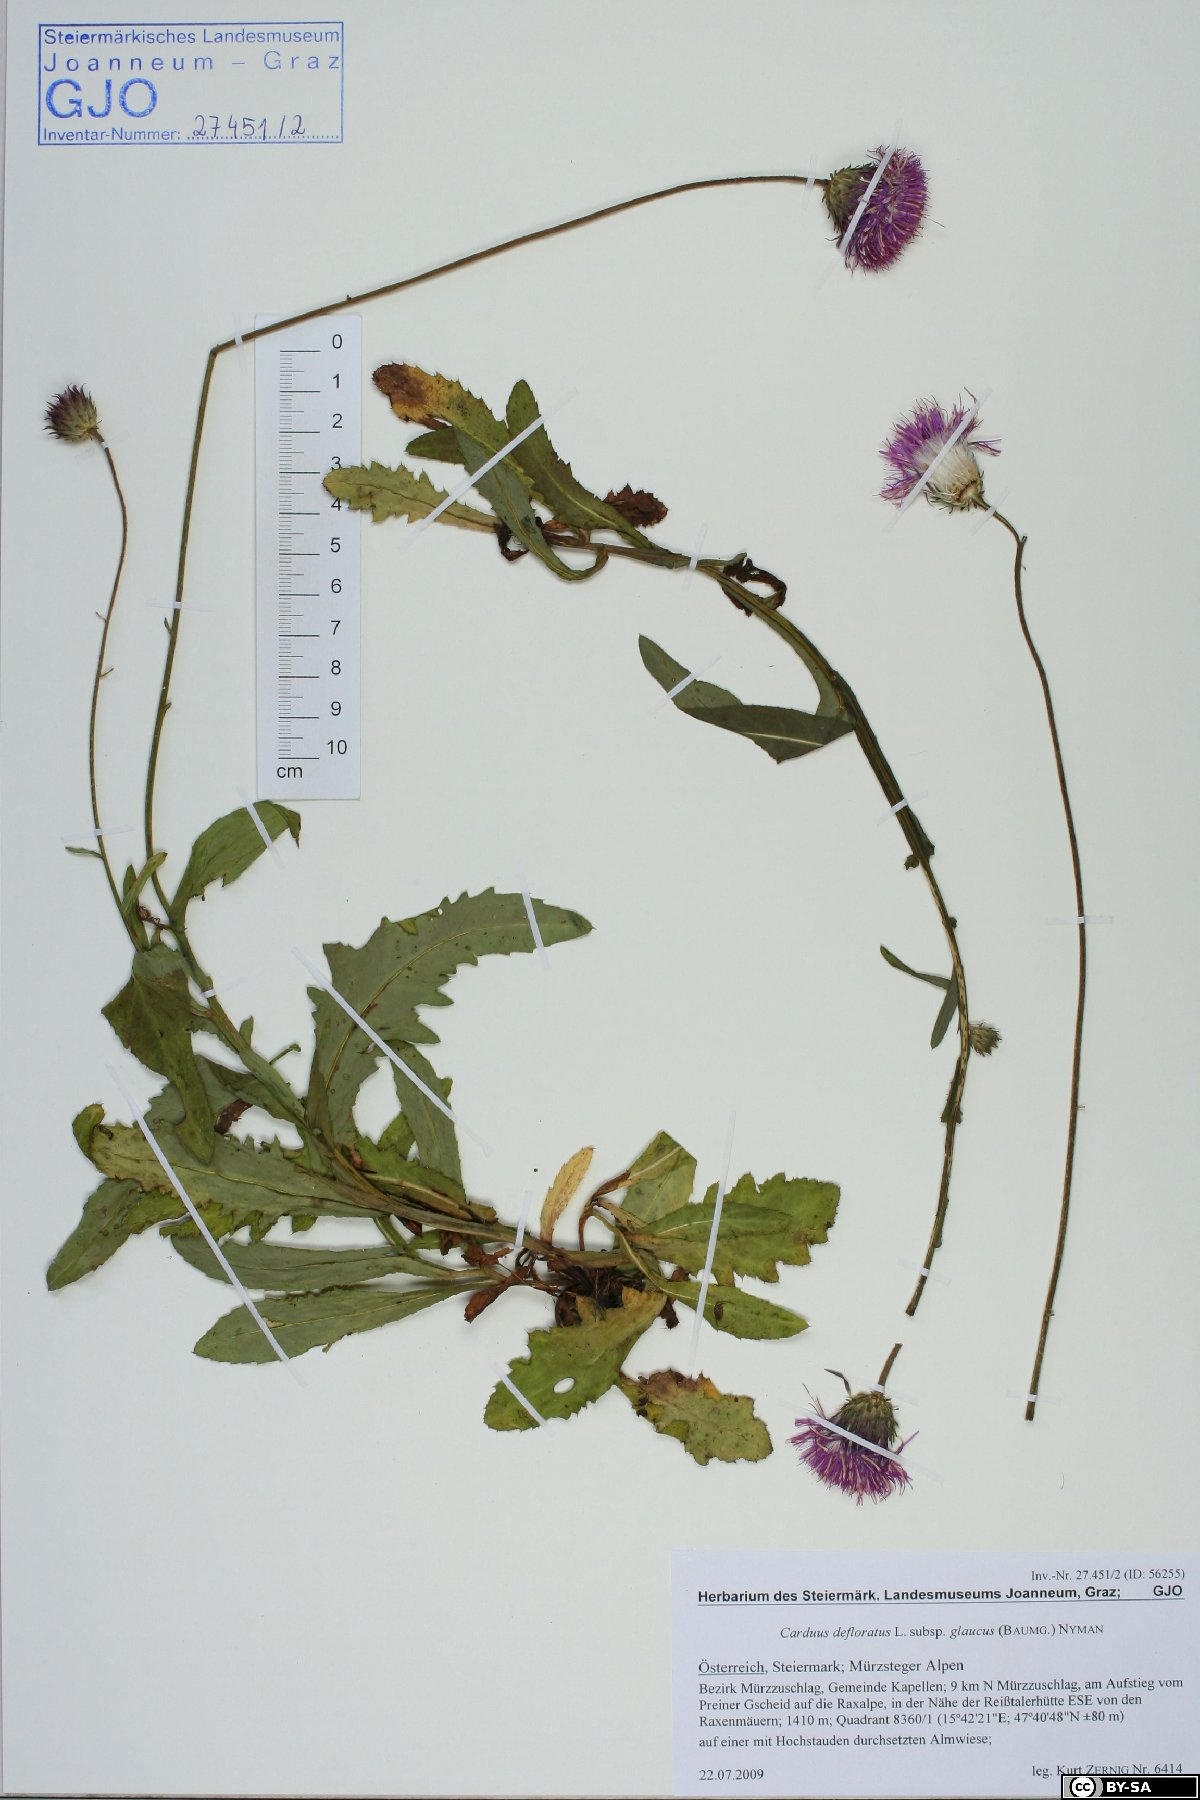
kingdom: Plantae
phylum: Tracheophyta
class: Magnoliopsida
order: Asterales
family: Asteraceae
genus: Carduus
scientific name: Carduus defloratus
